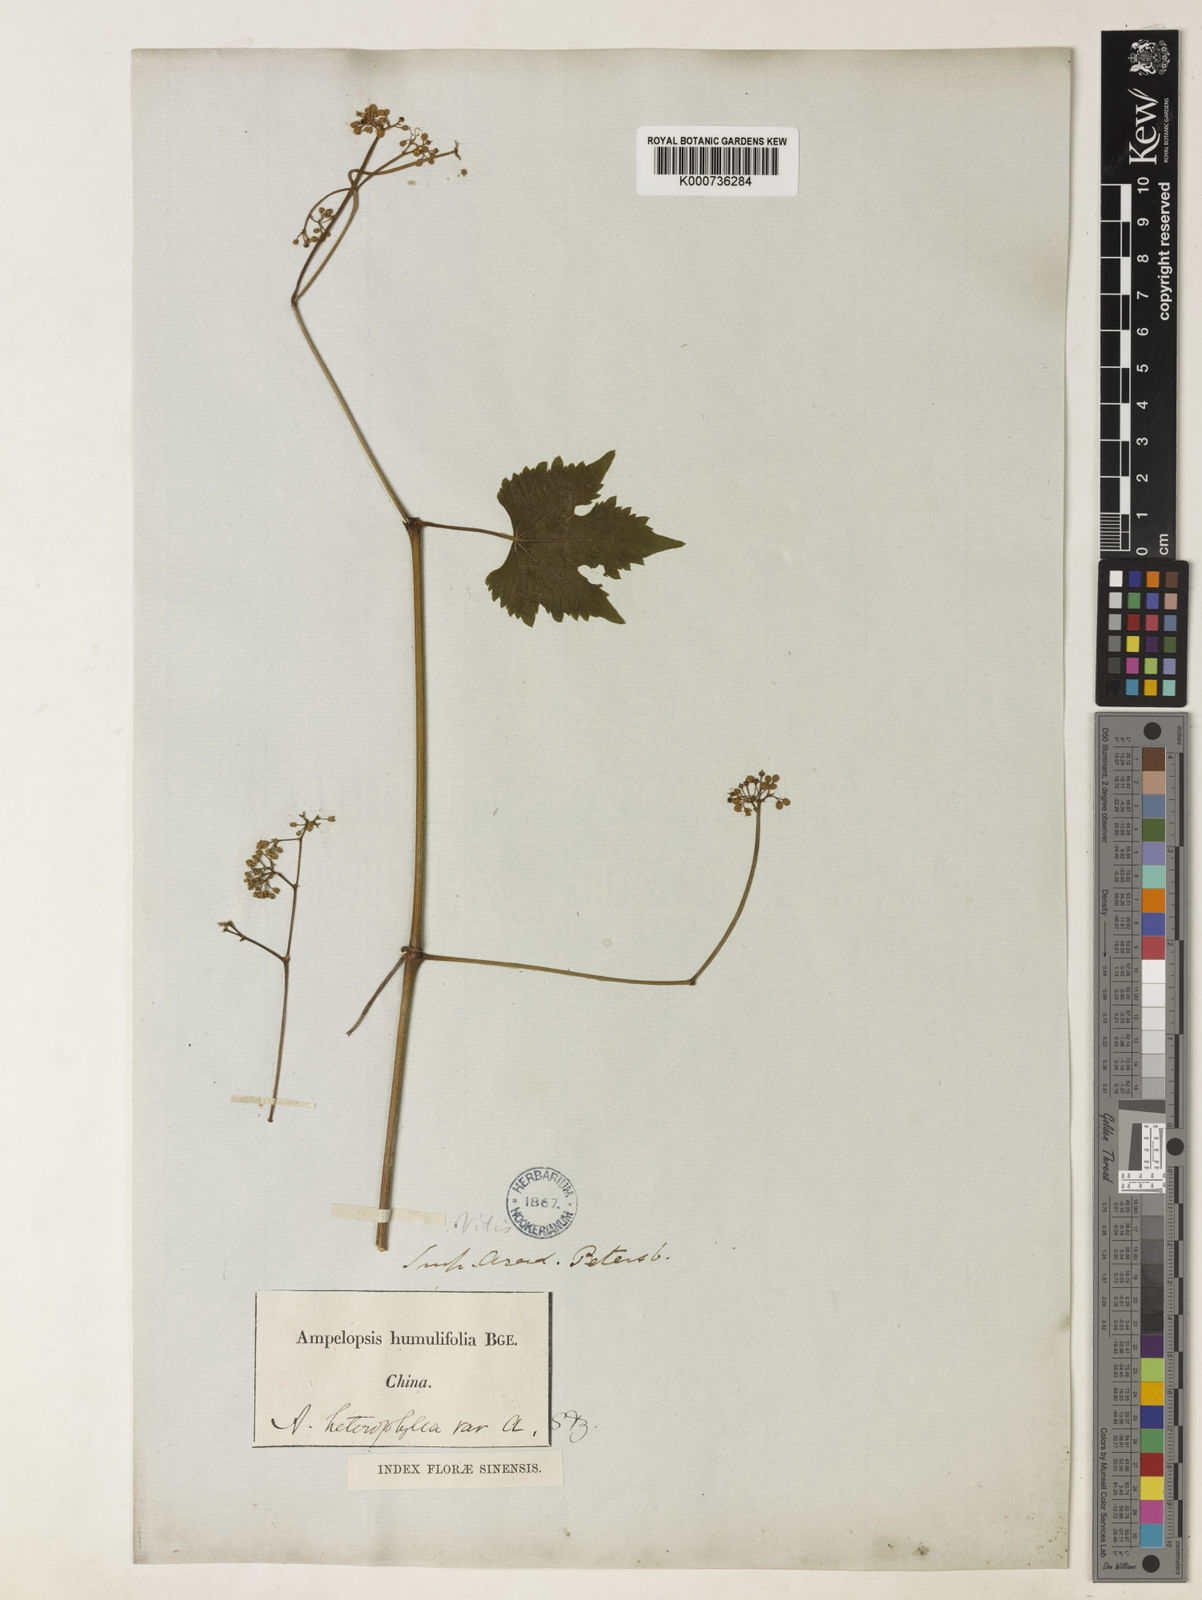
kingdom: Plantae
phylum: Tracheophyta
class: Magnoliopsida
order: Vitales
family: Vitaceae
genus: Ampelopsis
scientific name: Ampelopsis glandulosa
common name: Amur peppervine
